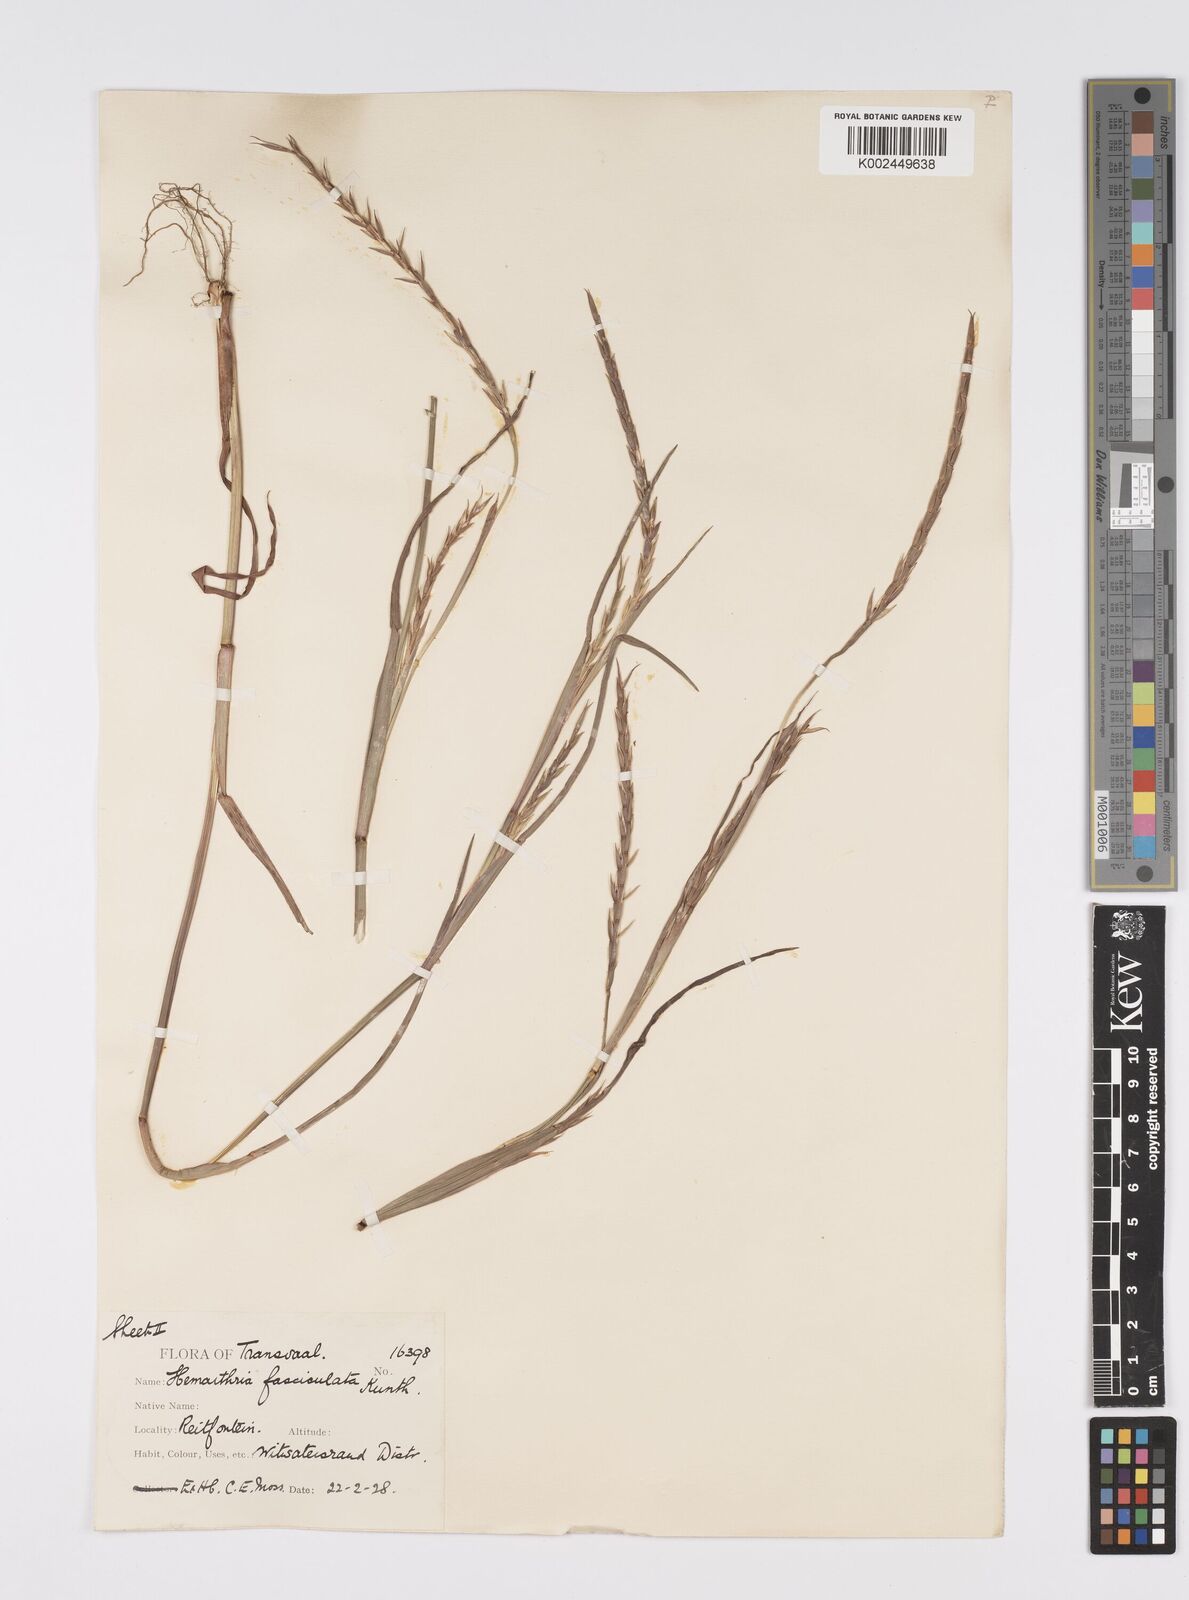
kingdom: Plantae
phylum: Tracheophyta
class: Liliopsida
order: Poales
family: Poaceae
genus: Hemarthria
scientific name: Hemarthria altissima
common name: African jointgrass
